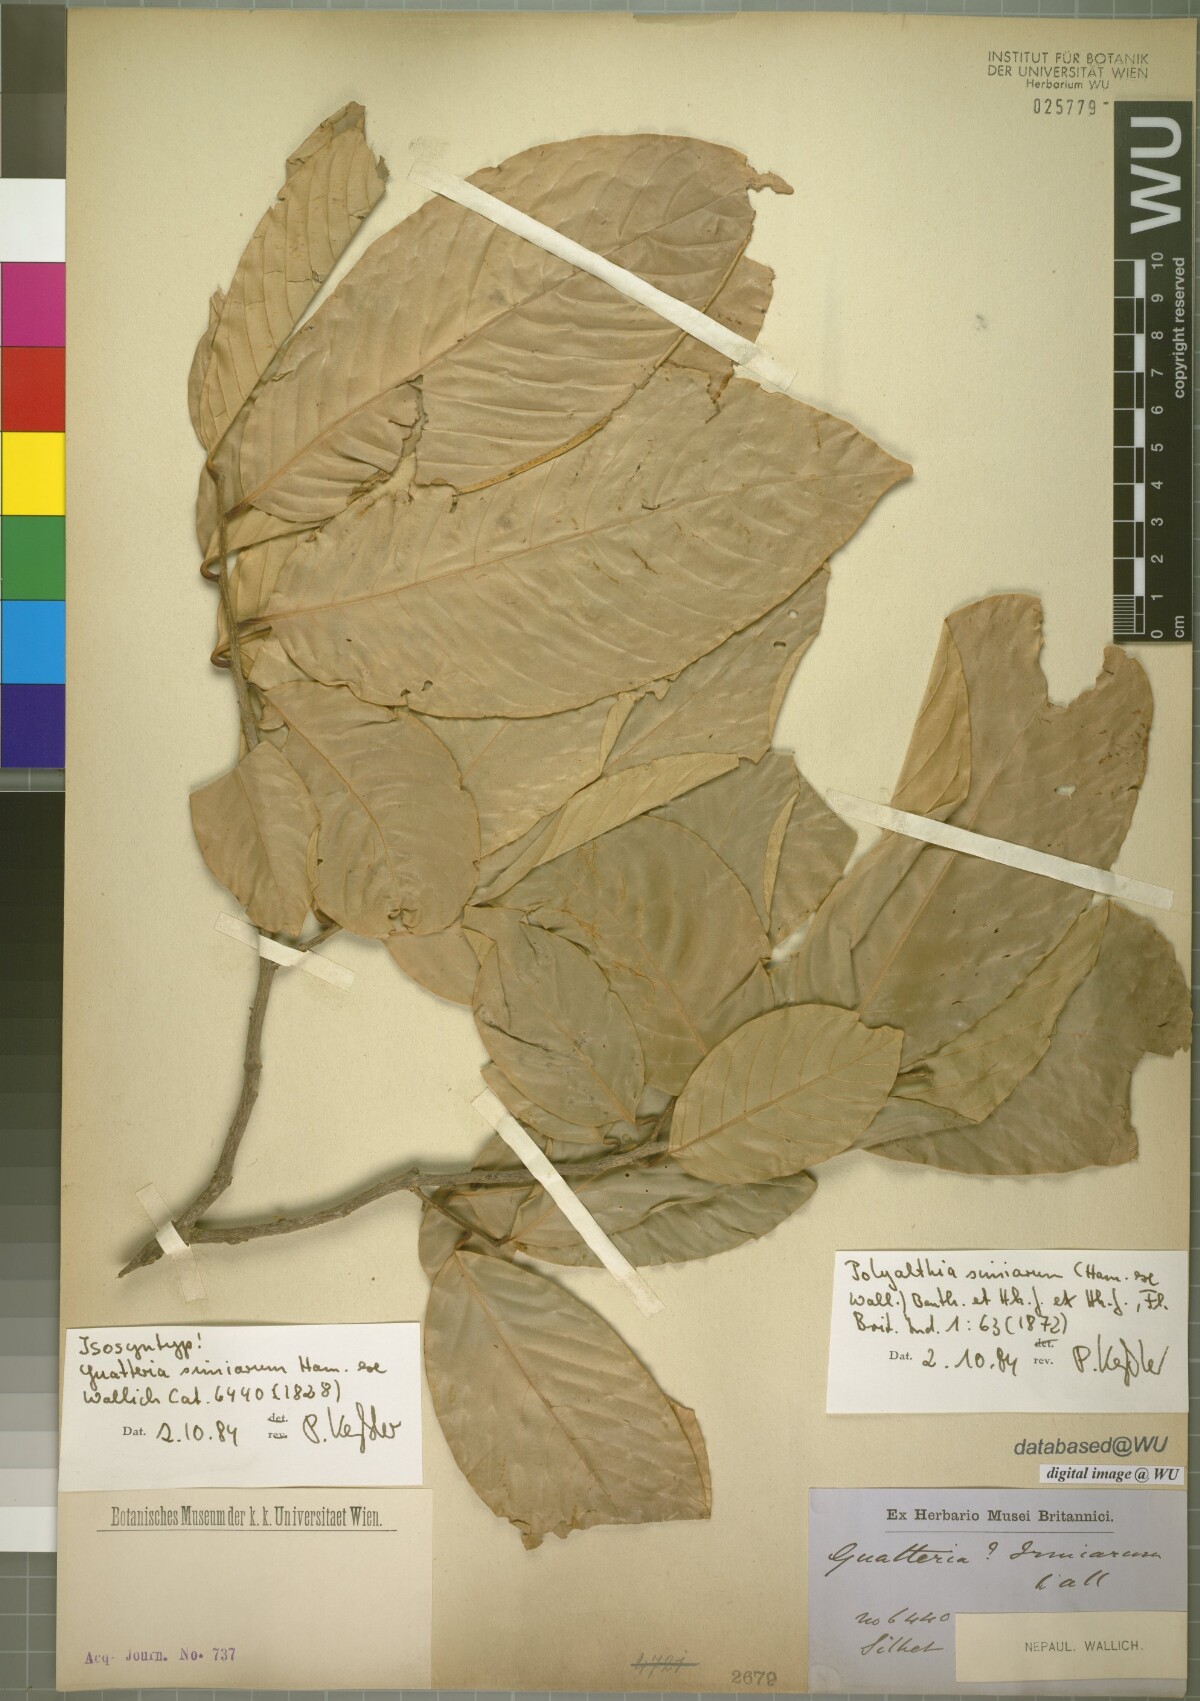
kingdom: Plantae
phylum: Tracheophyta
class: Magnoliopsida
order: Magnoliales
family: Annonaceae
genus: Polyalthia
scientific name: Polyalthia simiarum
